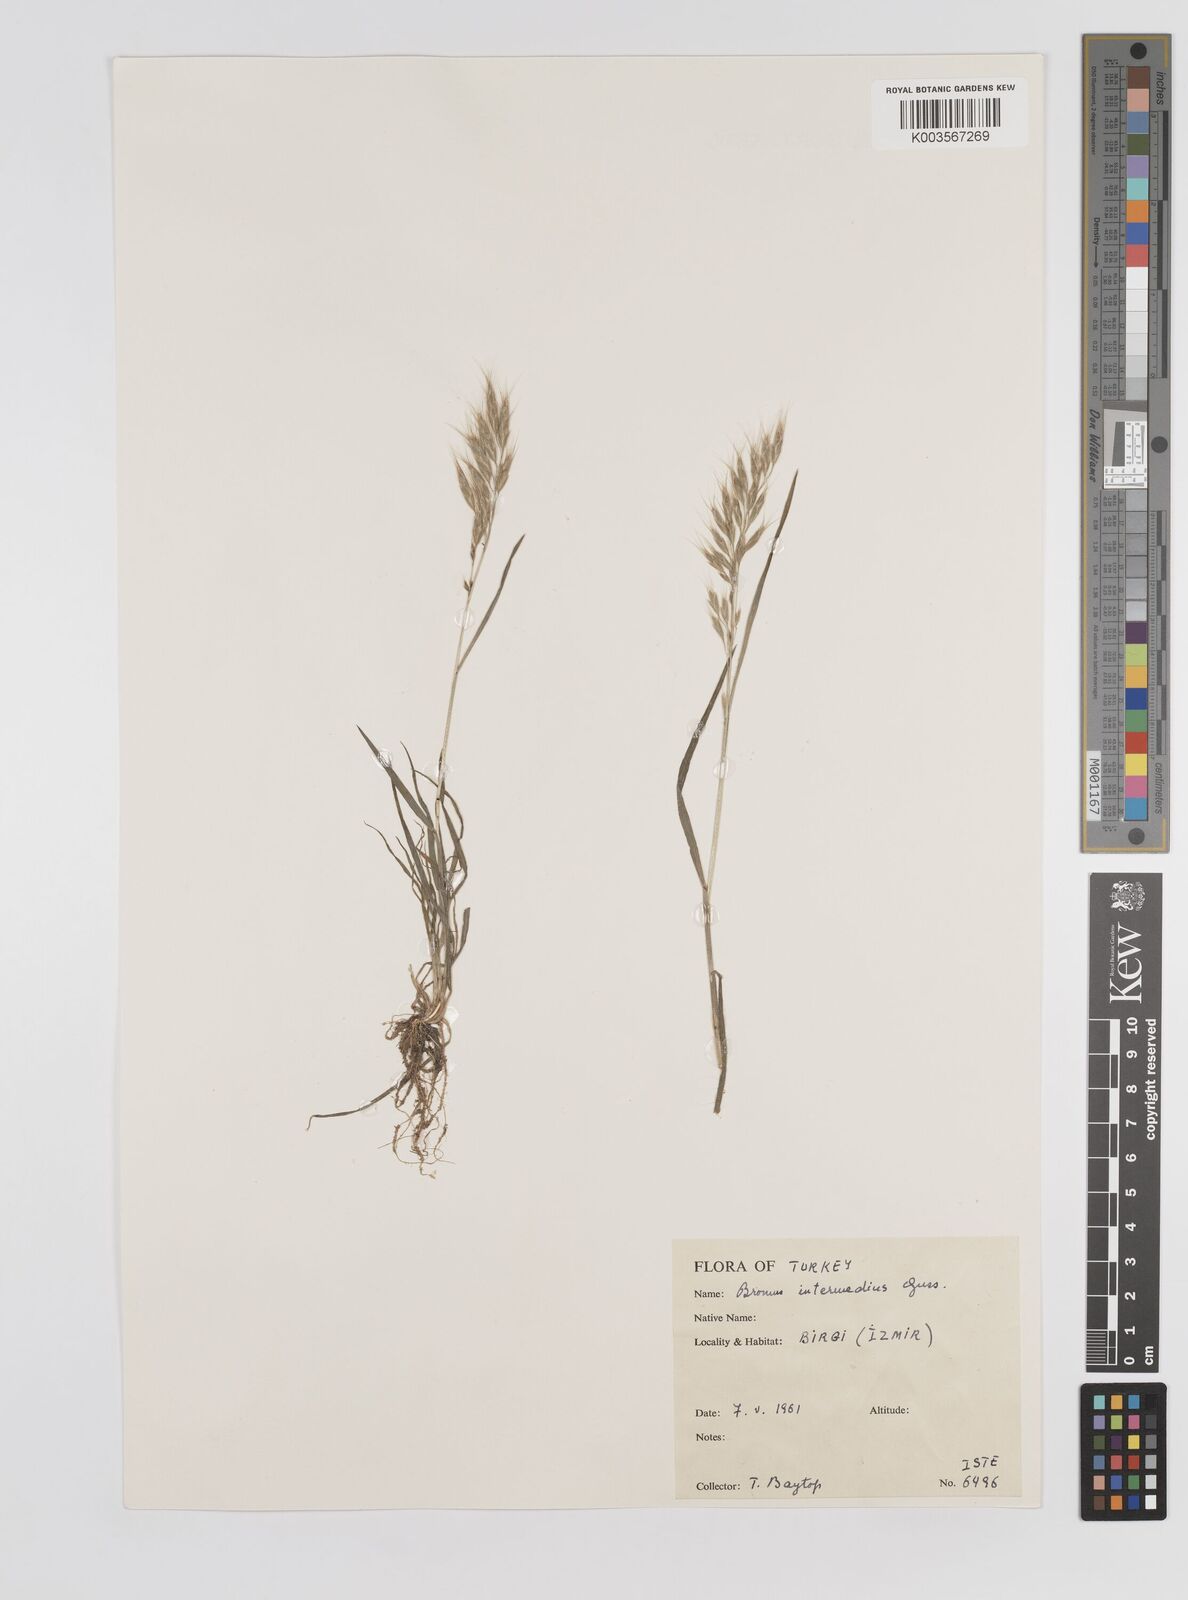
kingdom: Plantae
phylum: Tracheophyta
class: Liliopsida
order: Poales
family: Poaceae
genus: Bromus
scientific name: Bromus intermedius
